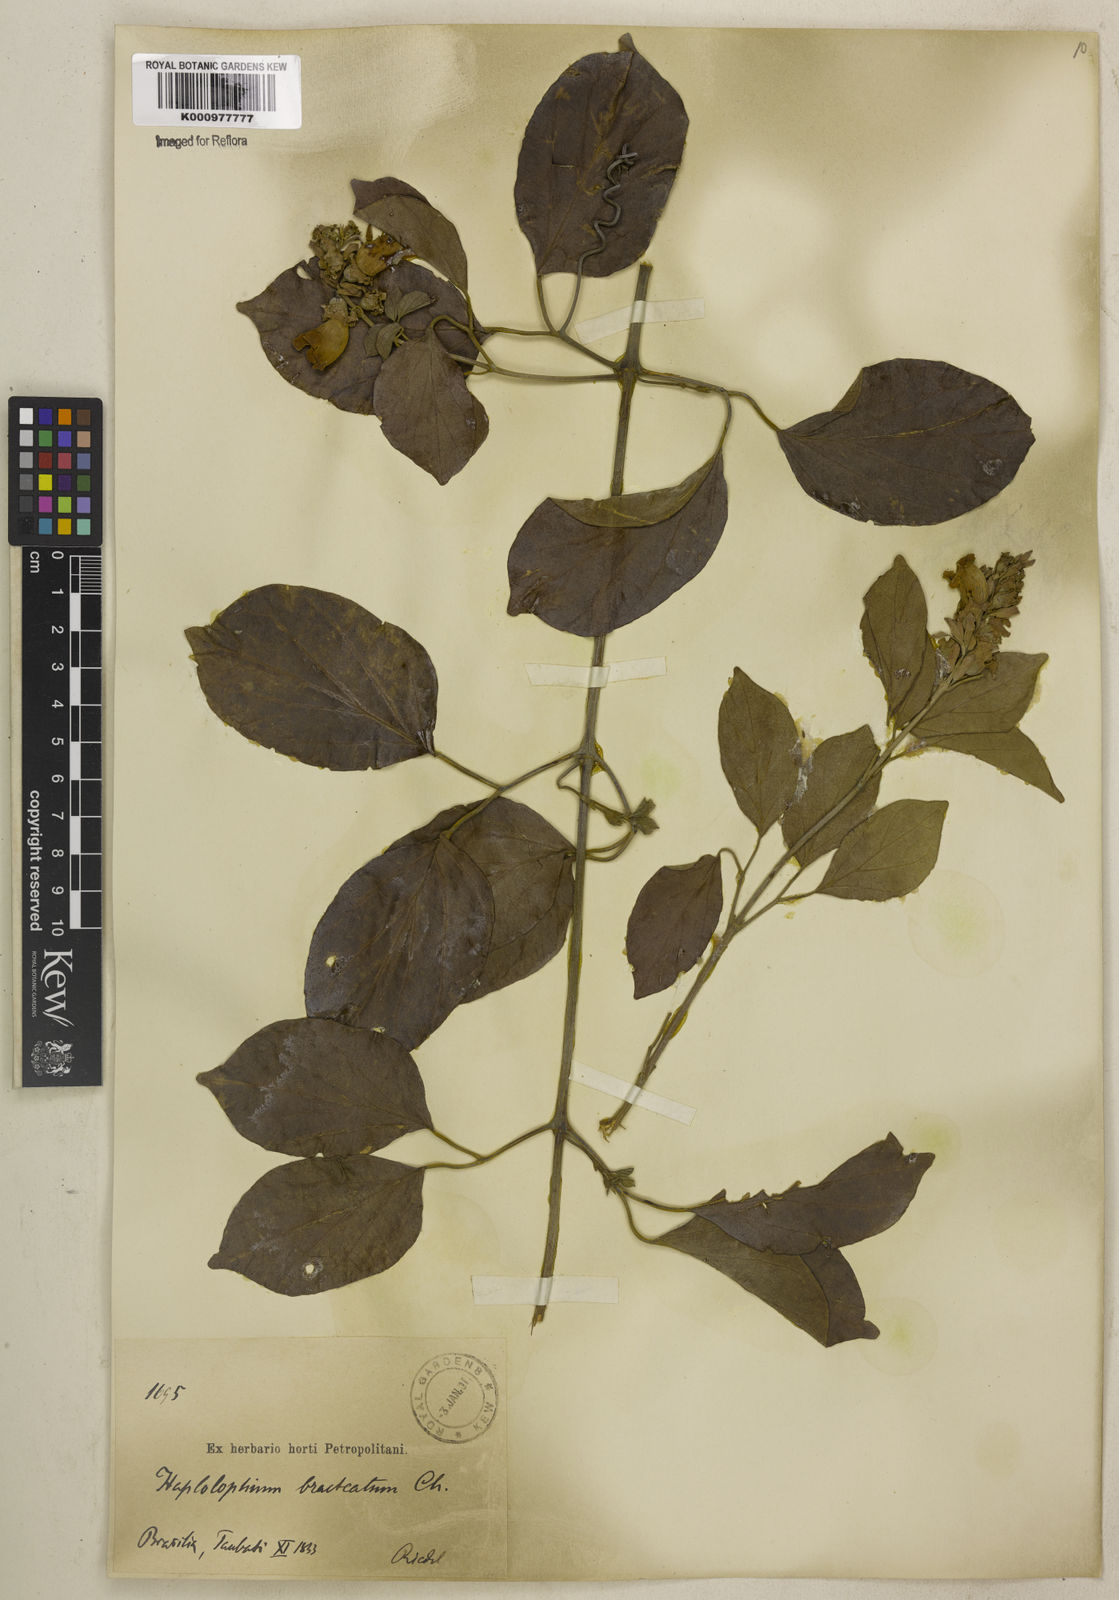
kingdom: Plantae
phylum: Tracheophyta
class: Magnoliopsida
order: Lamiales
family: Bignoniaceae
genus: Amphilophium
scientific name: Amphilophium bracteatum
